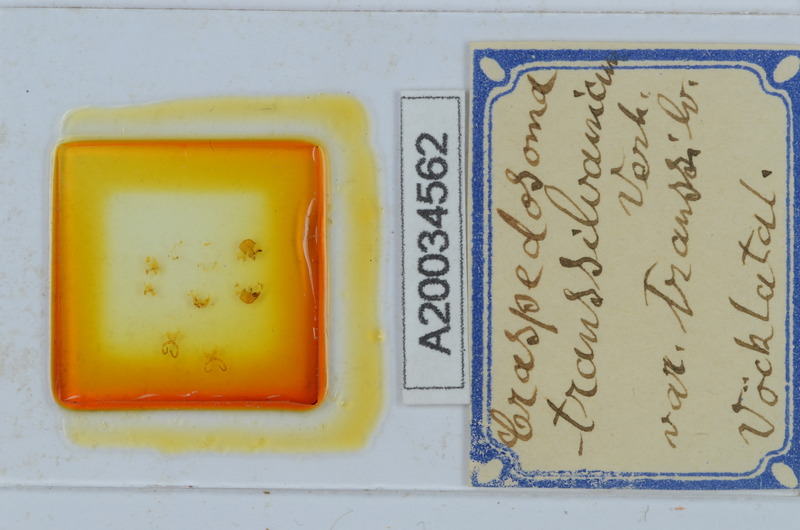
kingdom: Animalia
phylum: Arthropoda
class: Diplopoda
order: Chordeumatida
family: Craspedosomatidae
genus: Craspedosoma
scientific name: Craspedosoma rawlinsii
